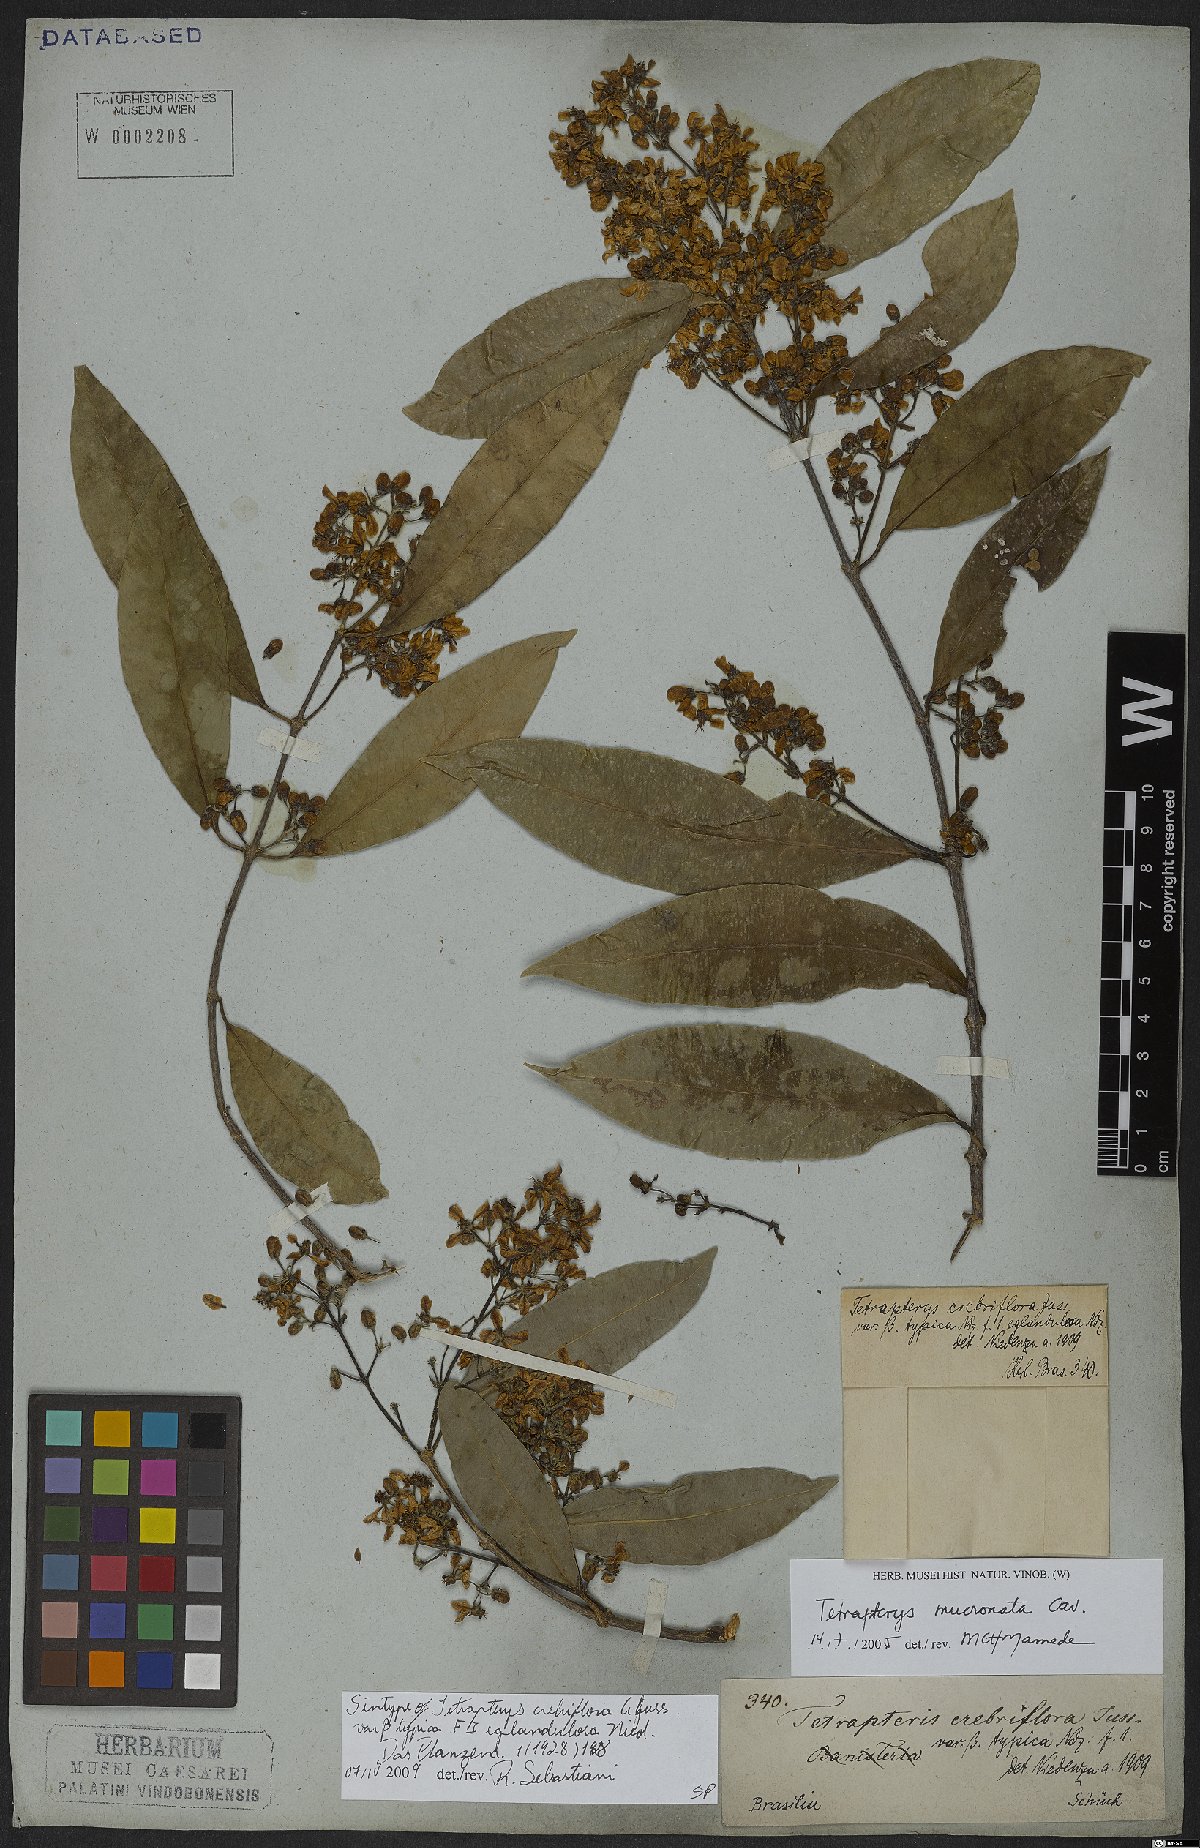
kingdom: Plantae
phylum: Tracheophyta
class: Magnoliopsida
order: Malpighiales
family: Malpighiaceae
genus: Tetrapterys
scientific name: Tetrapterys mucronata
